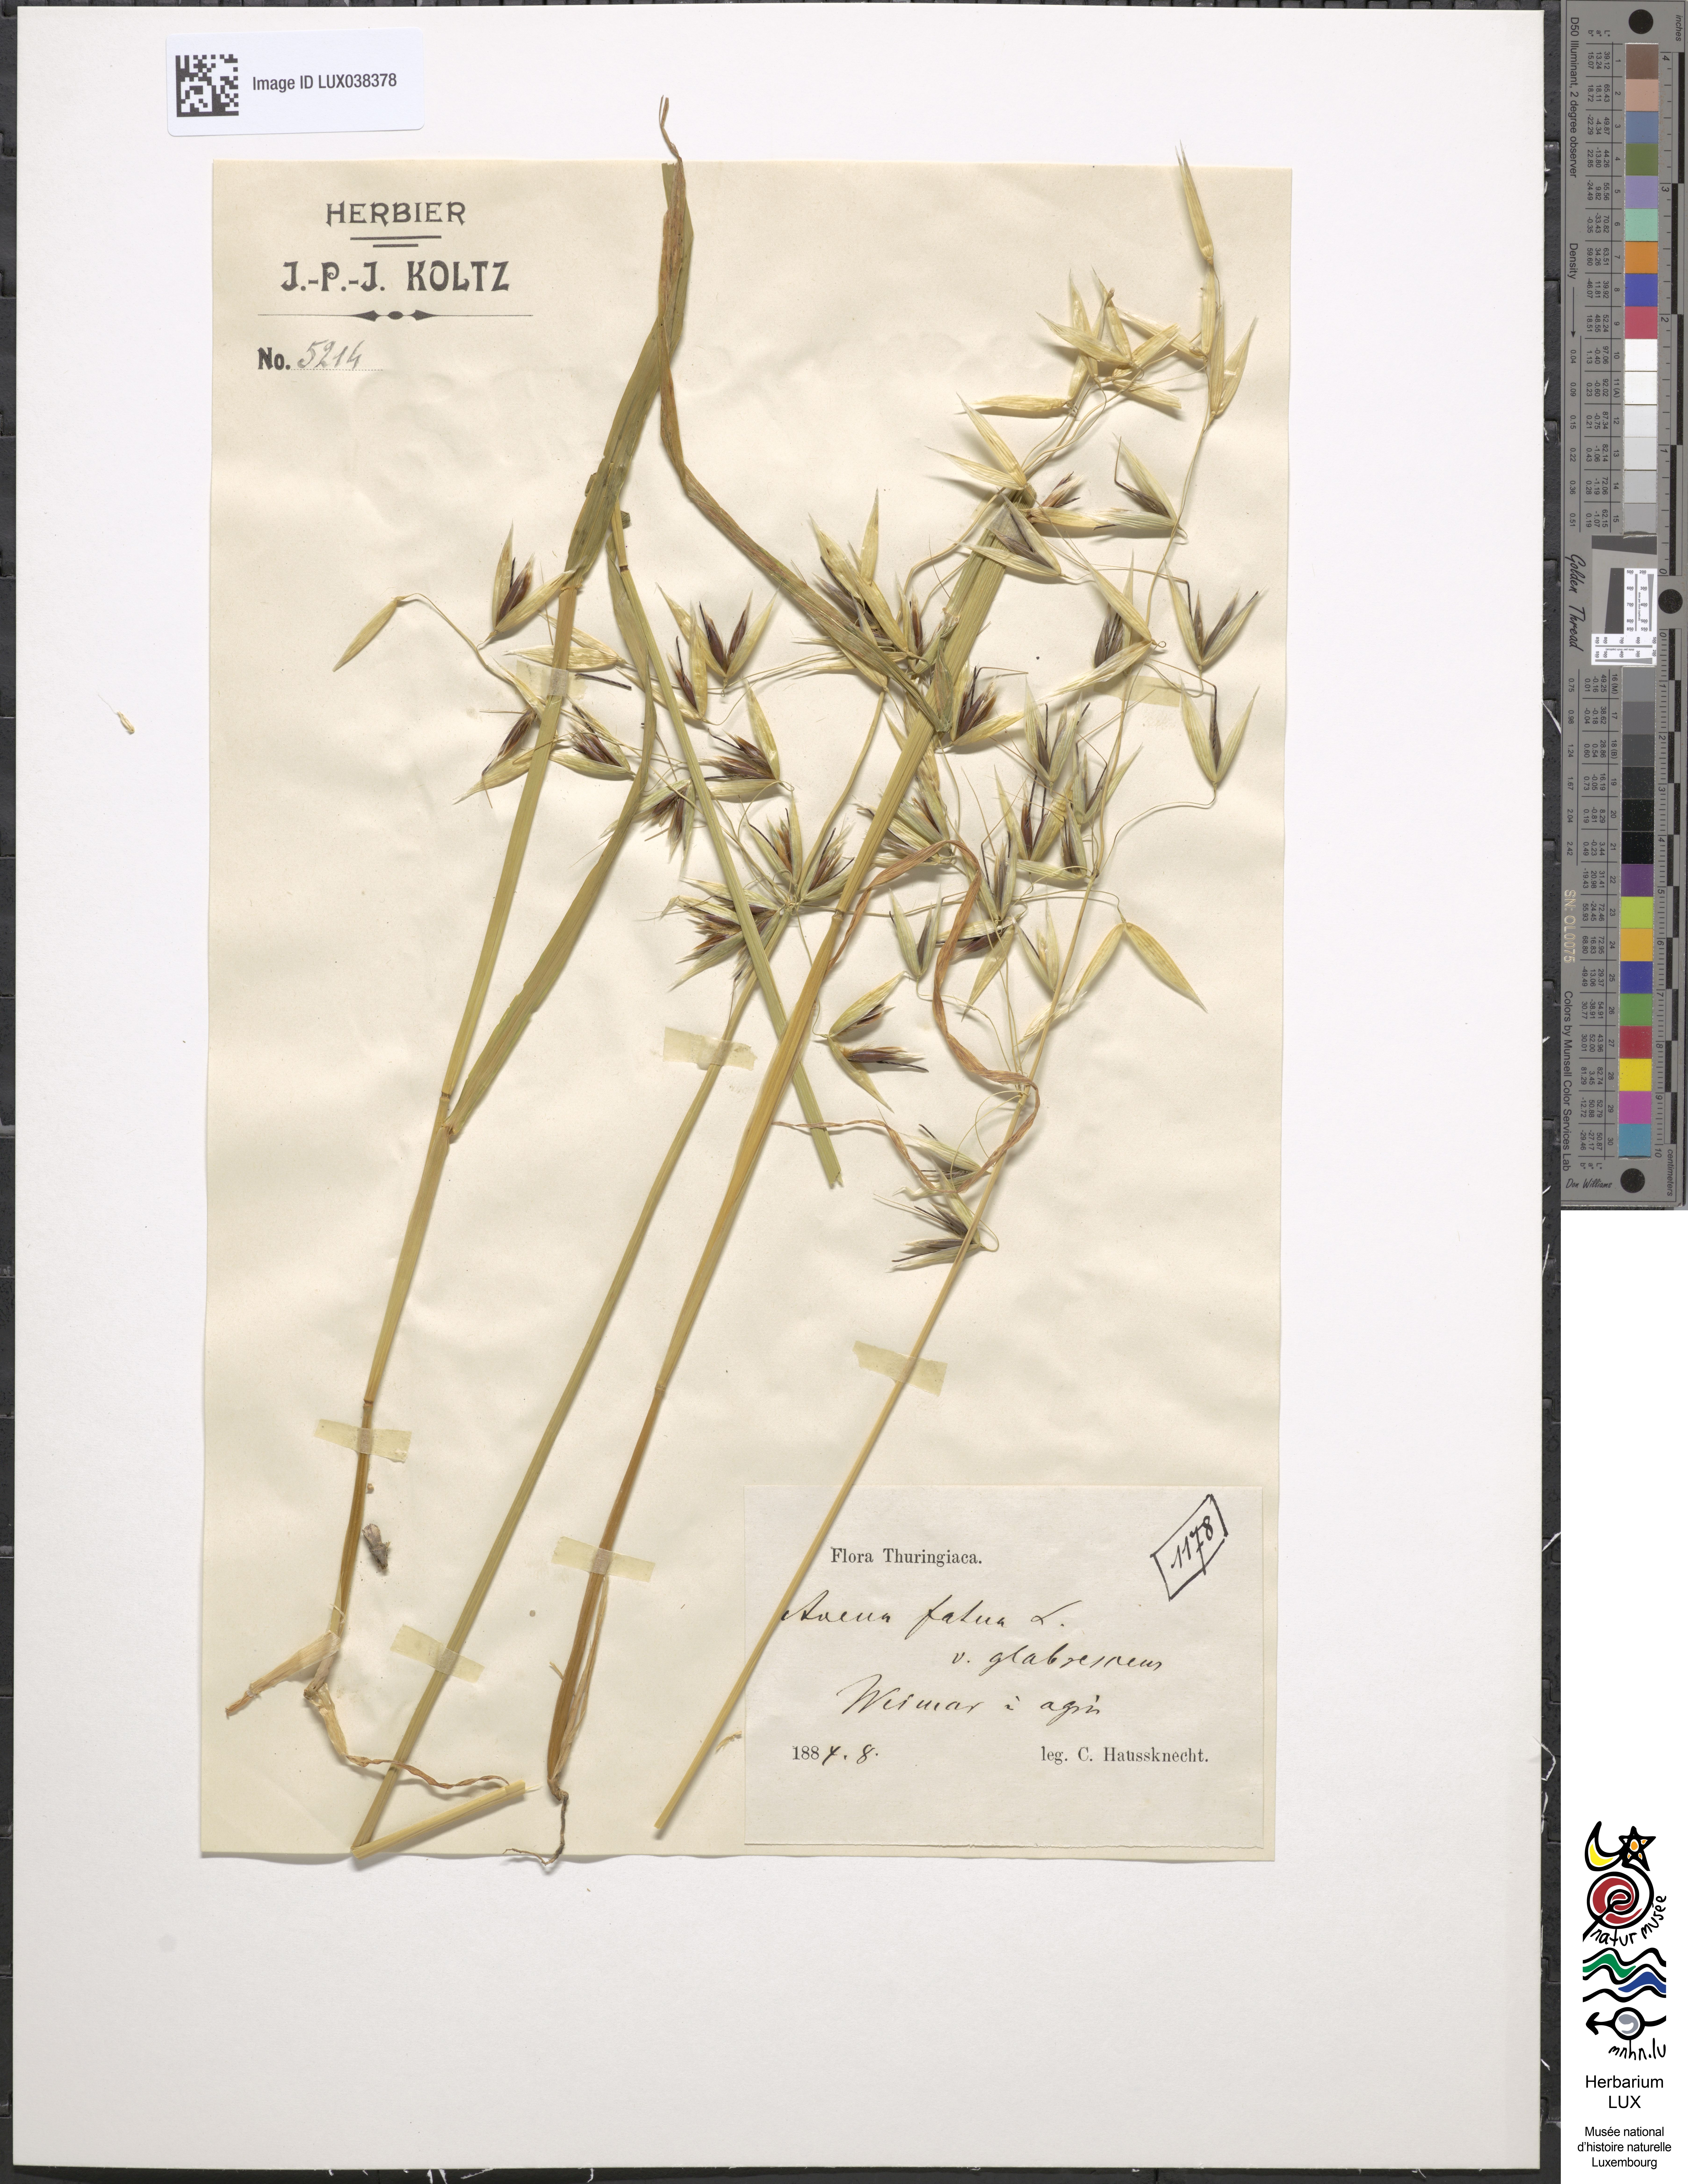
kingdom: Plantae
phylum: Tracheophyta
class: Liliopsida
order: Poales
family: Poaceae
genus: Avena
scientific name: Avena fatua
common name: Wild oat
